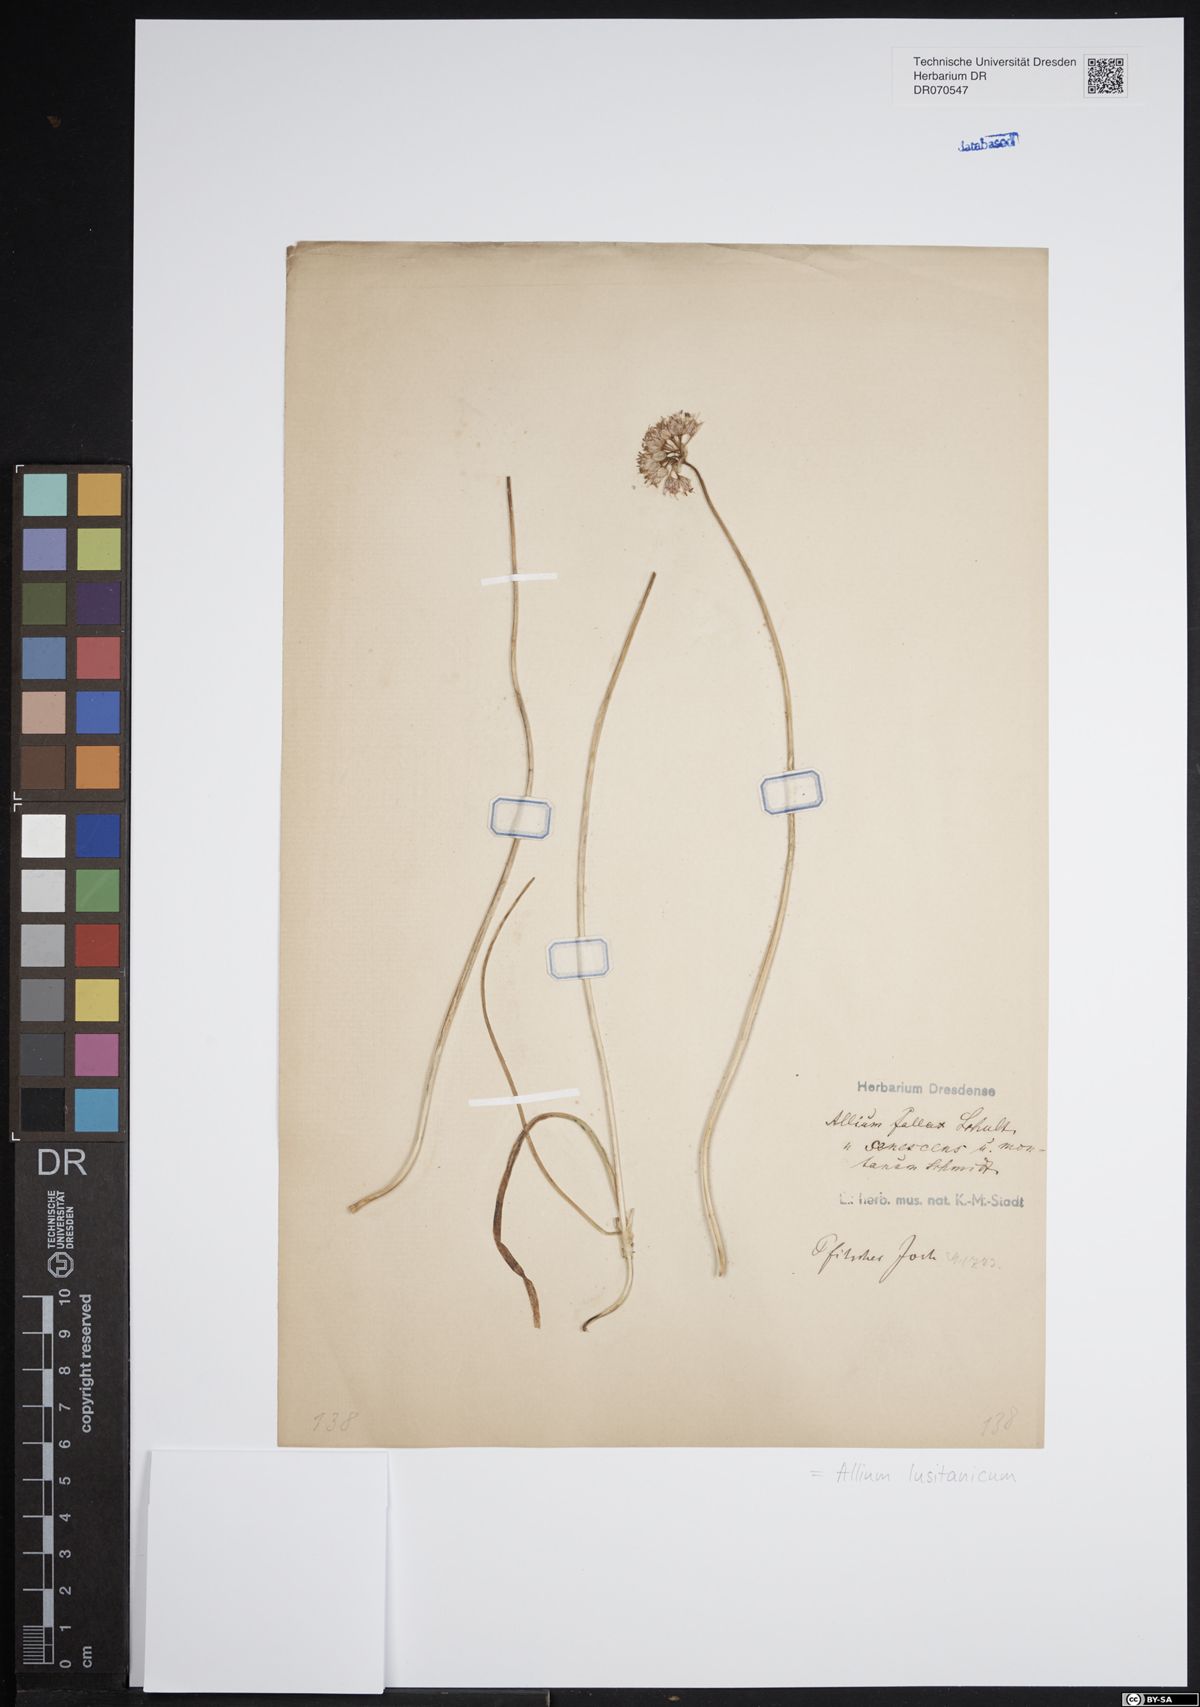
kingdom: Plantae
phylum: Tracheophyta
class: Liliopsida
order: Asparagales
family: Amaryllidaceae
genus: Allium
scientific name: Allium lusitanicum
